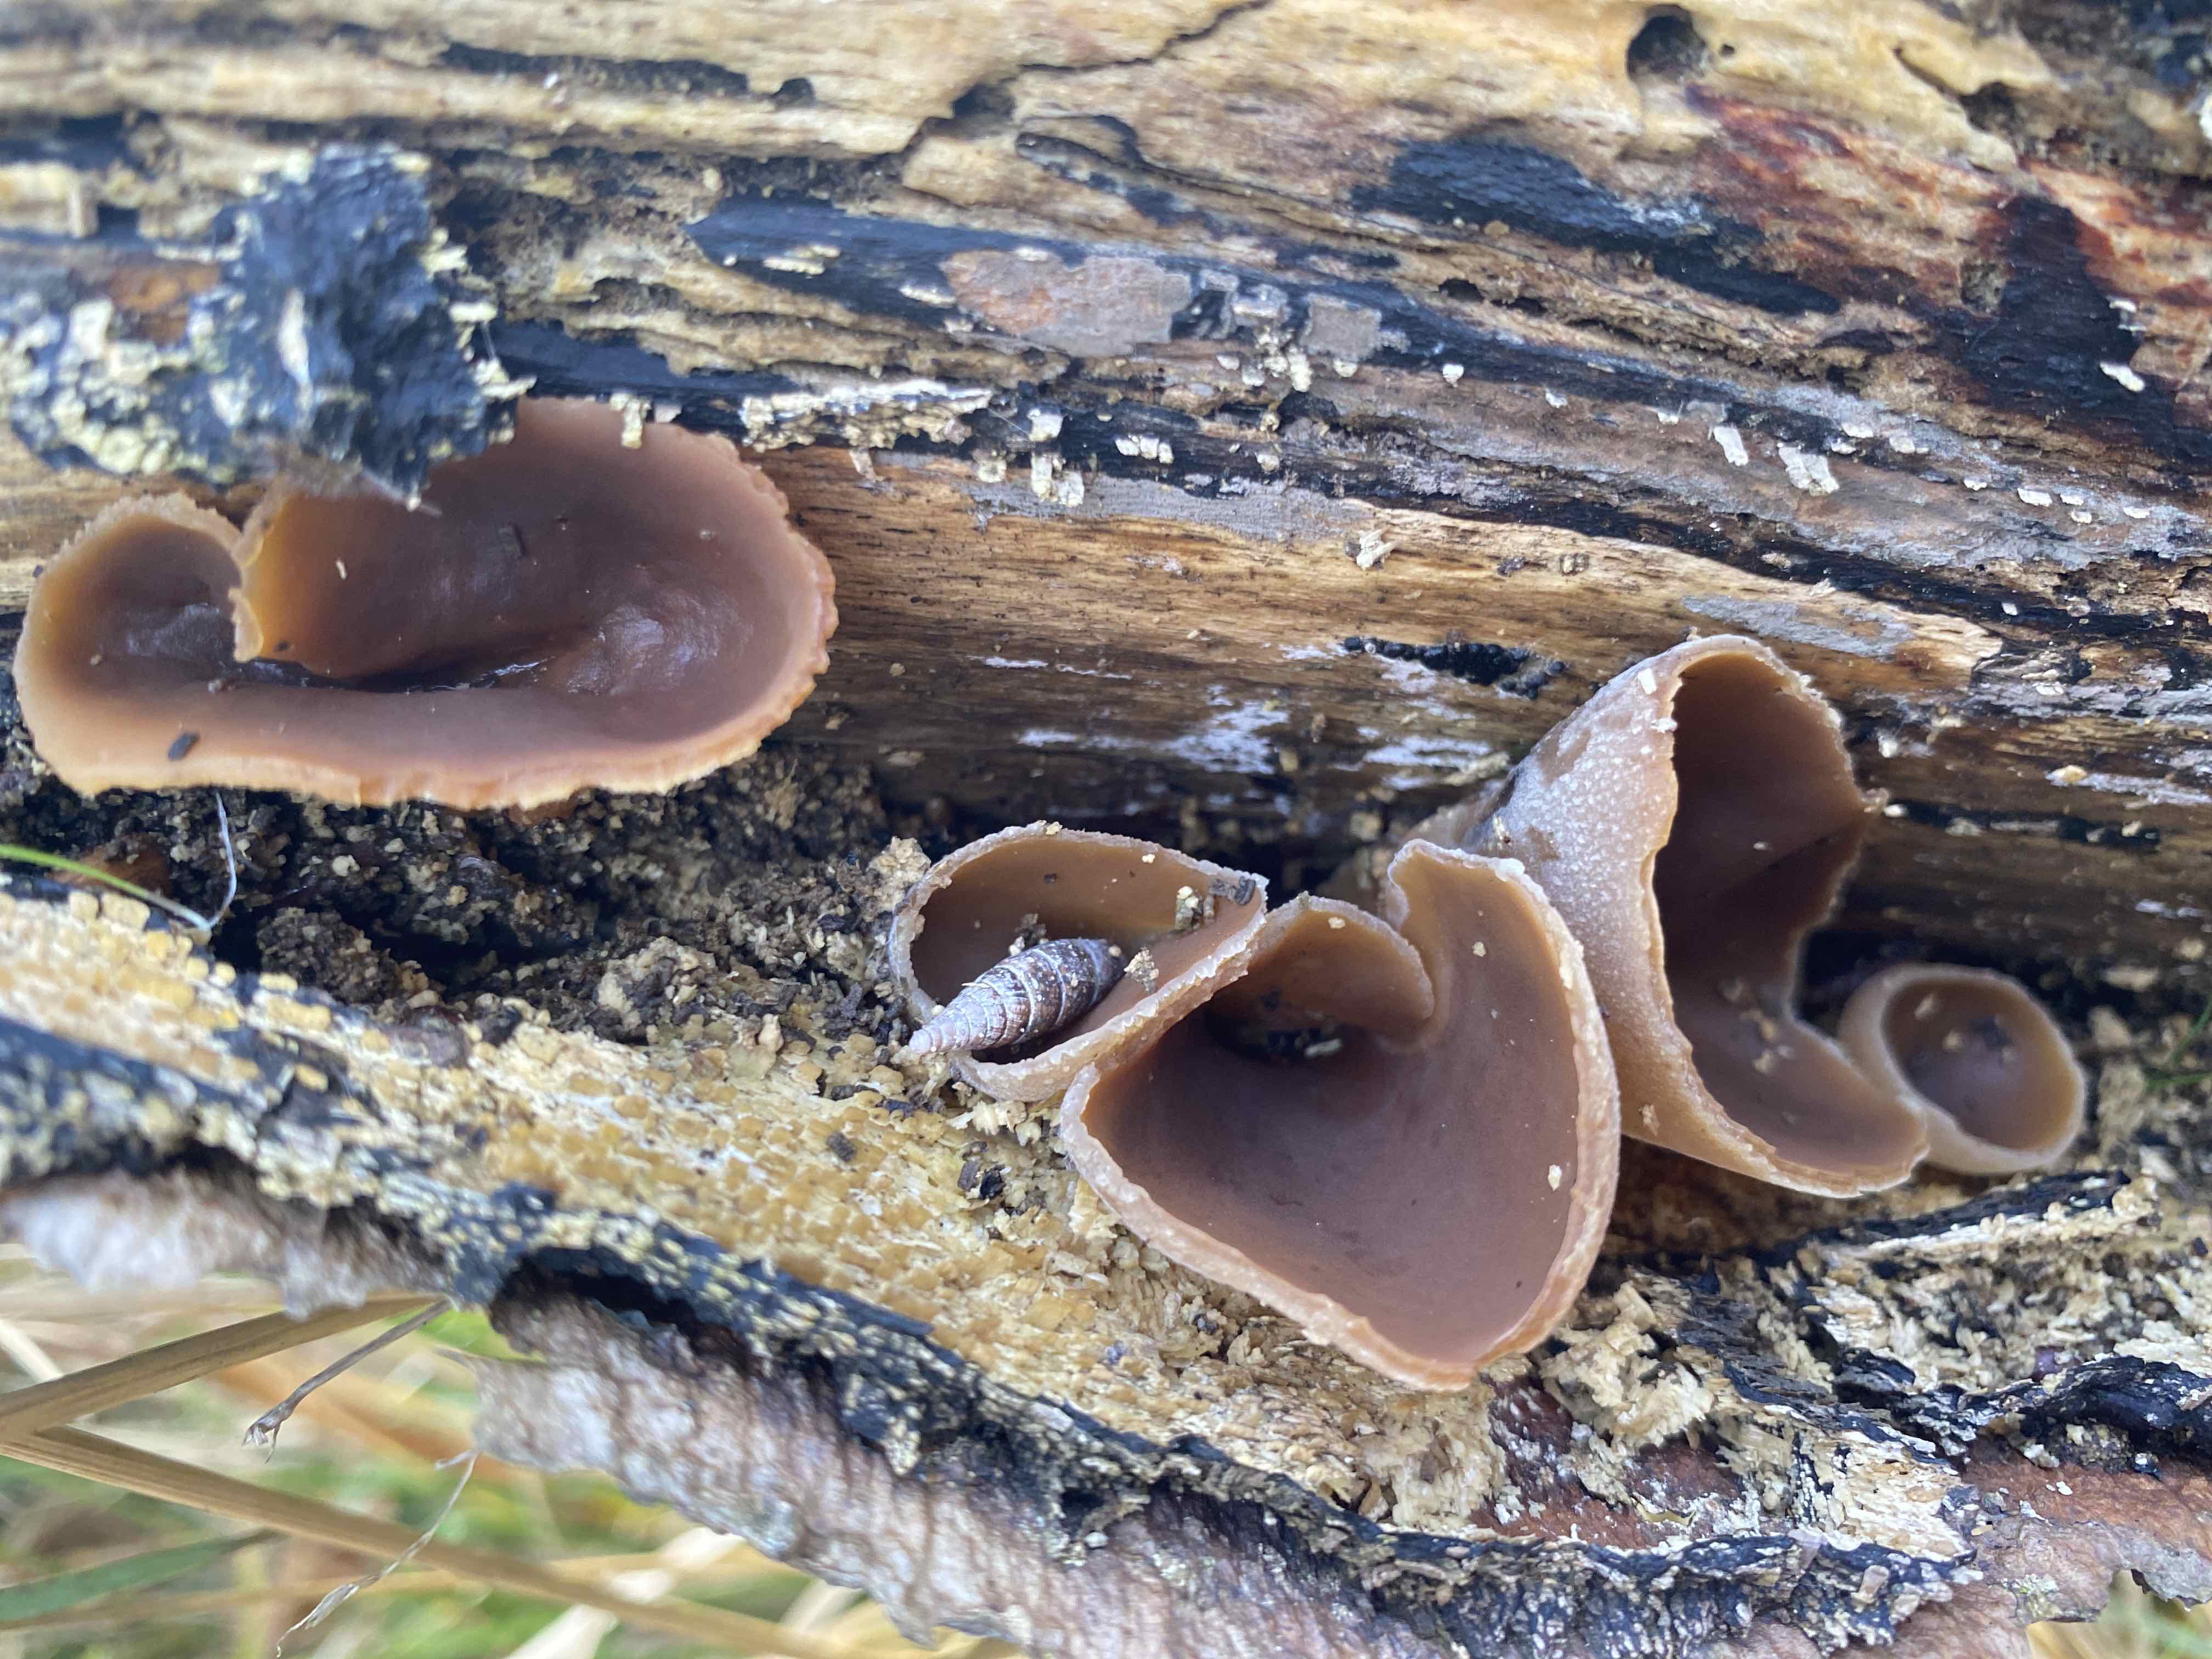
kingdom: Fungi
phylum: Ascomycota
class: Pezizomycetes
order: Pezizales
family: Pezizaceae
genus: Peziza
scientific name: Peziza varia
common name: Ved-bægersvamp
